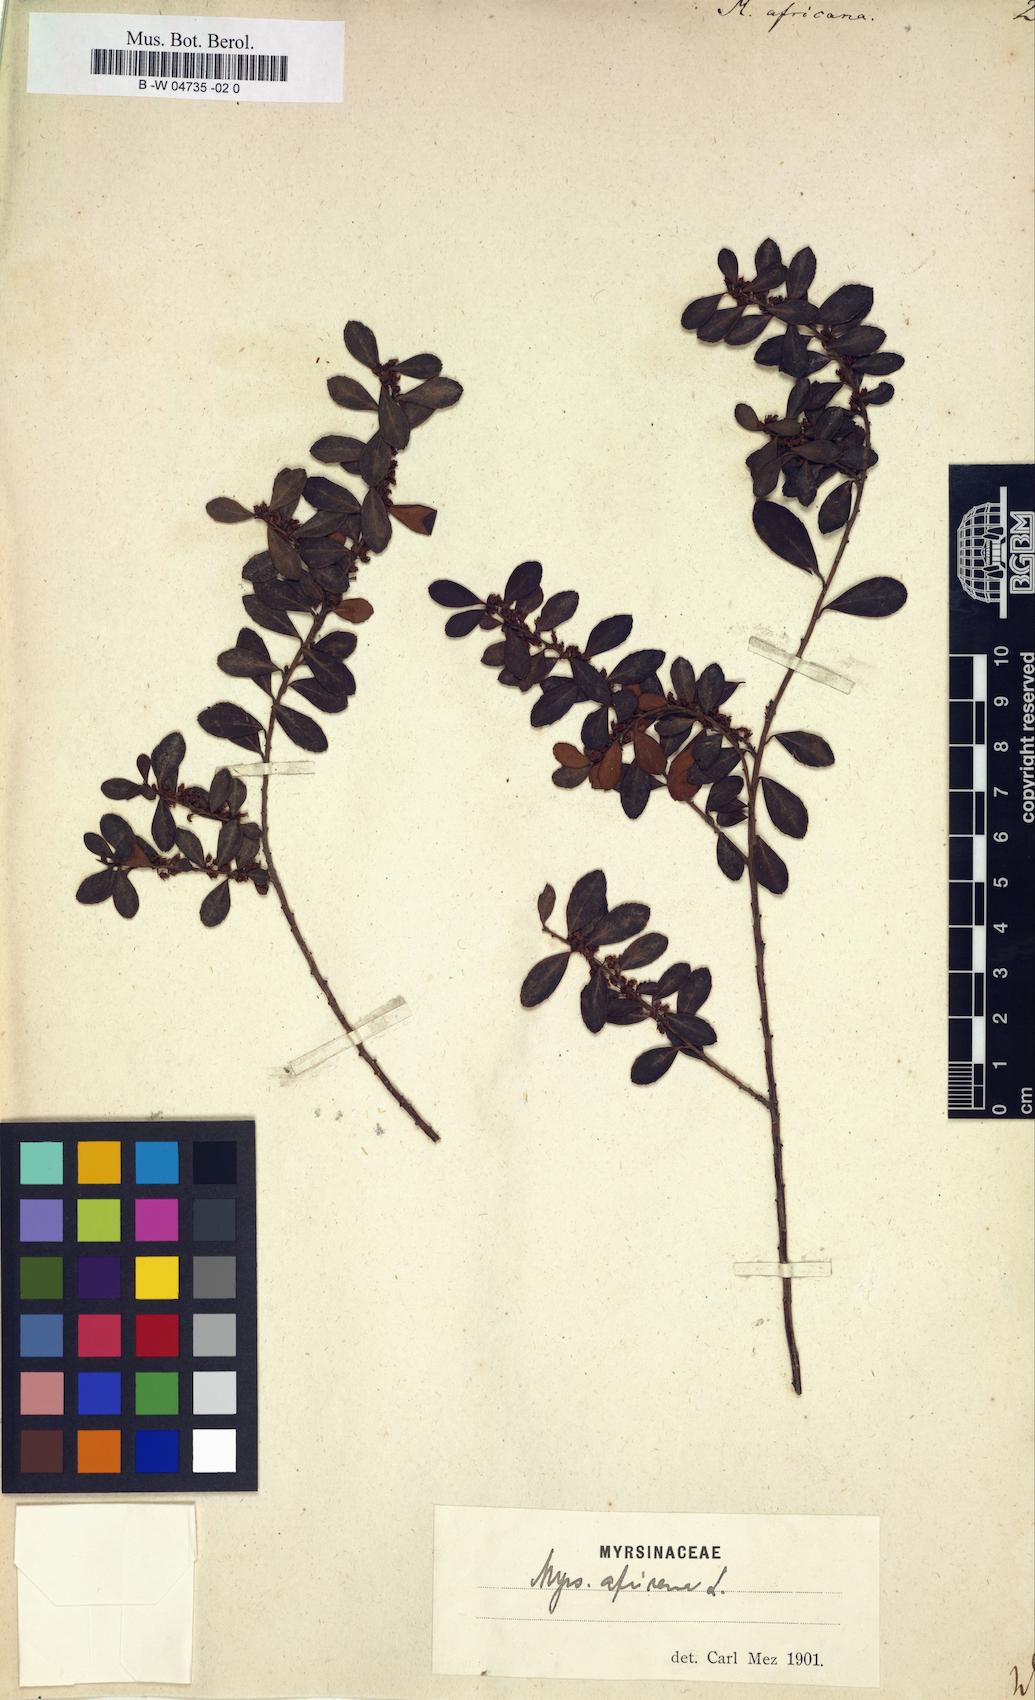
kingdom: Plantae
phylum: Tracheophyta
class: Magnoliopsida
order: Ericales
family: Primulaceae
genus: Myrsine
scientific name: Myrsine africana
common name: African-boxwood
